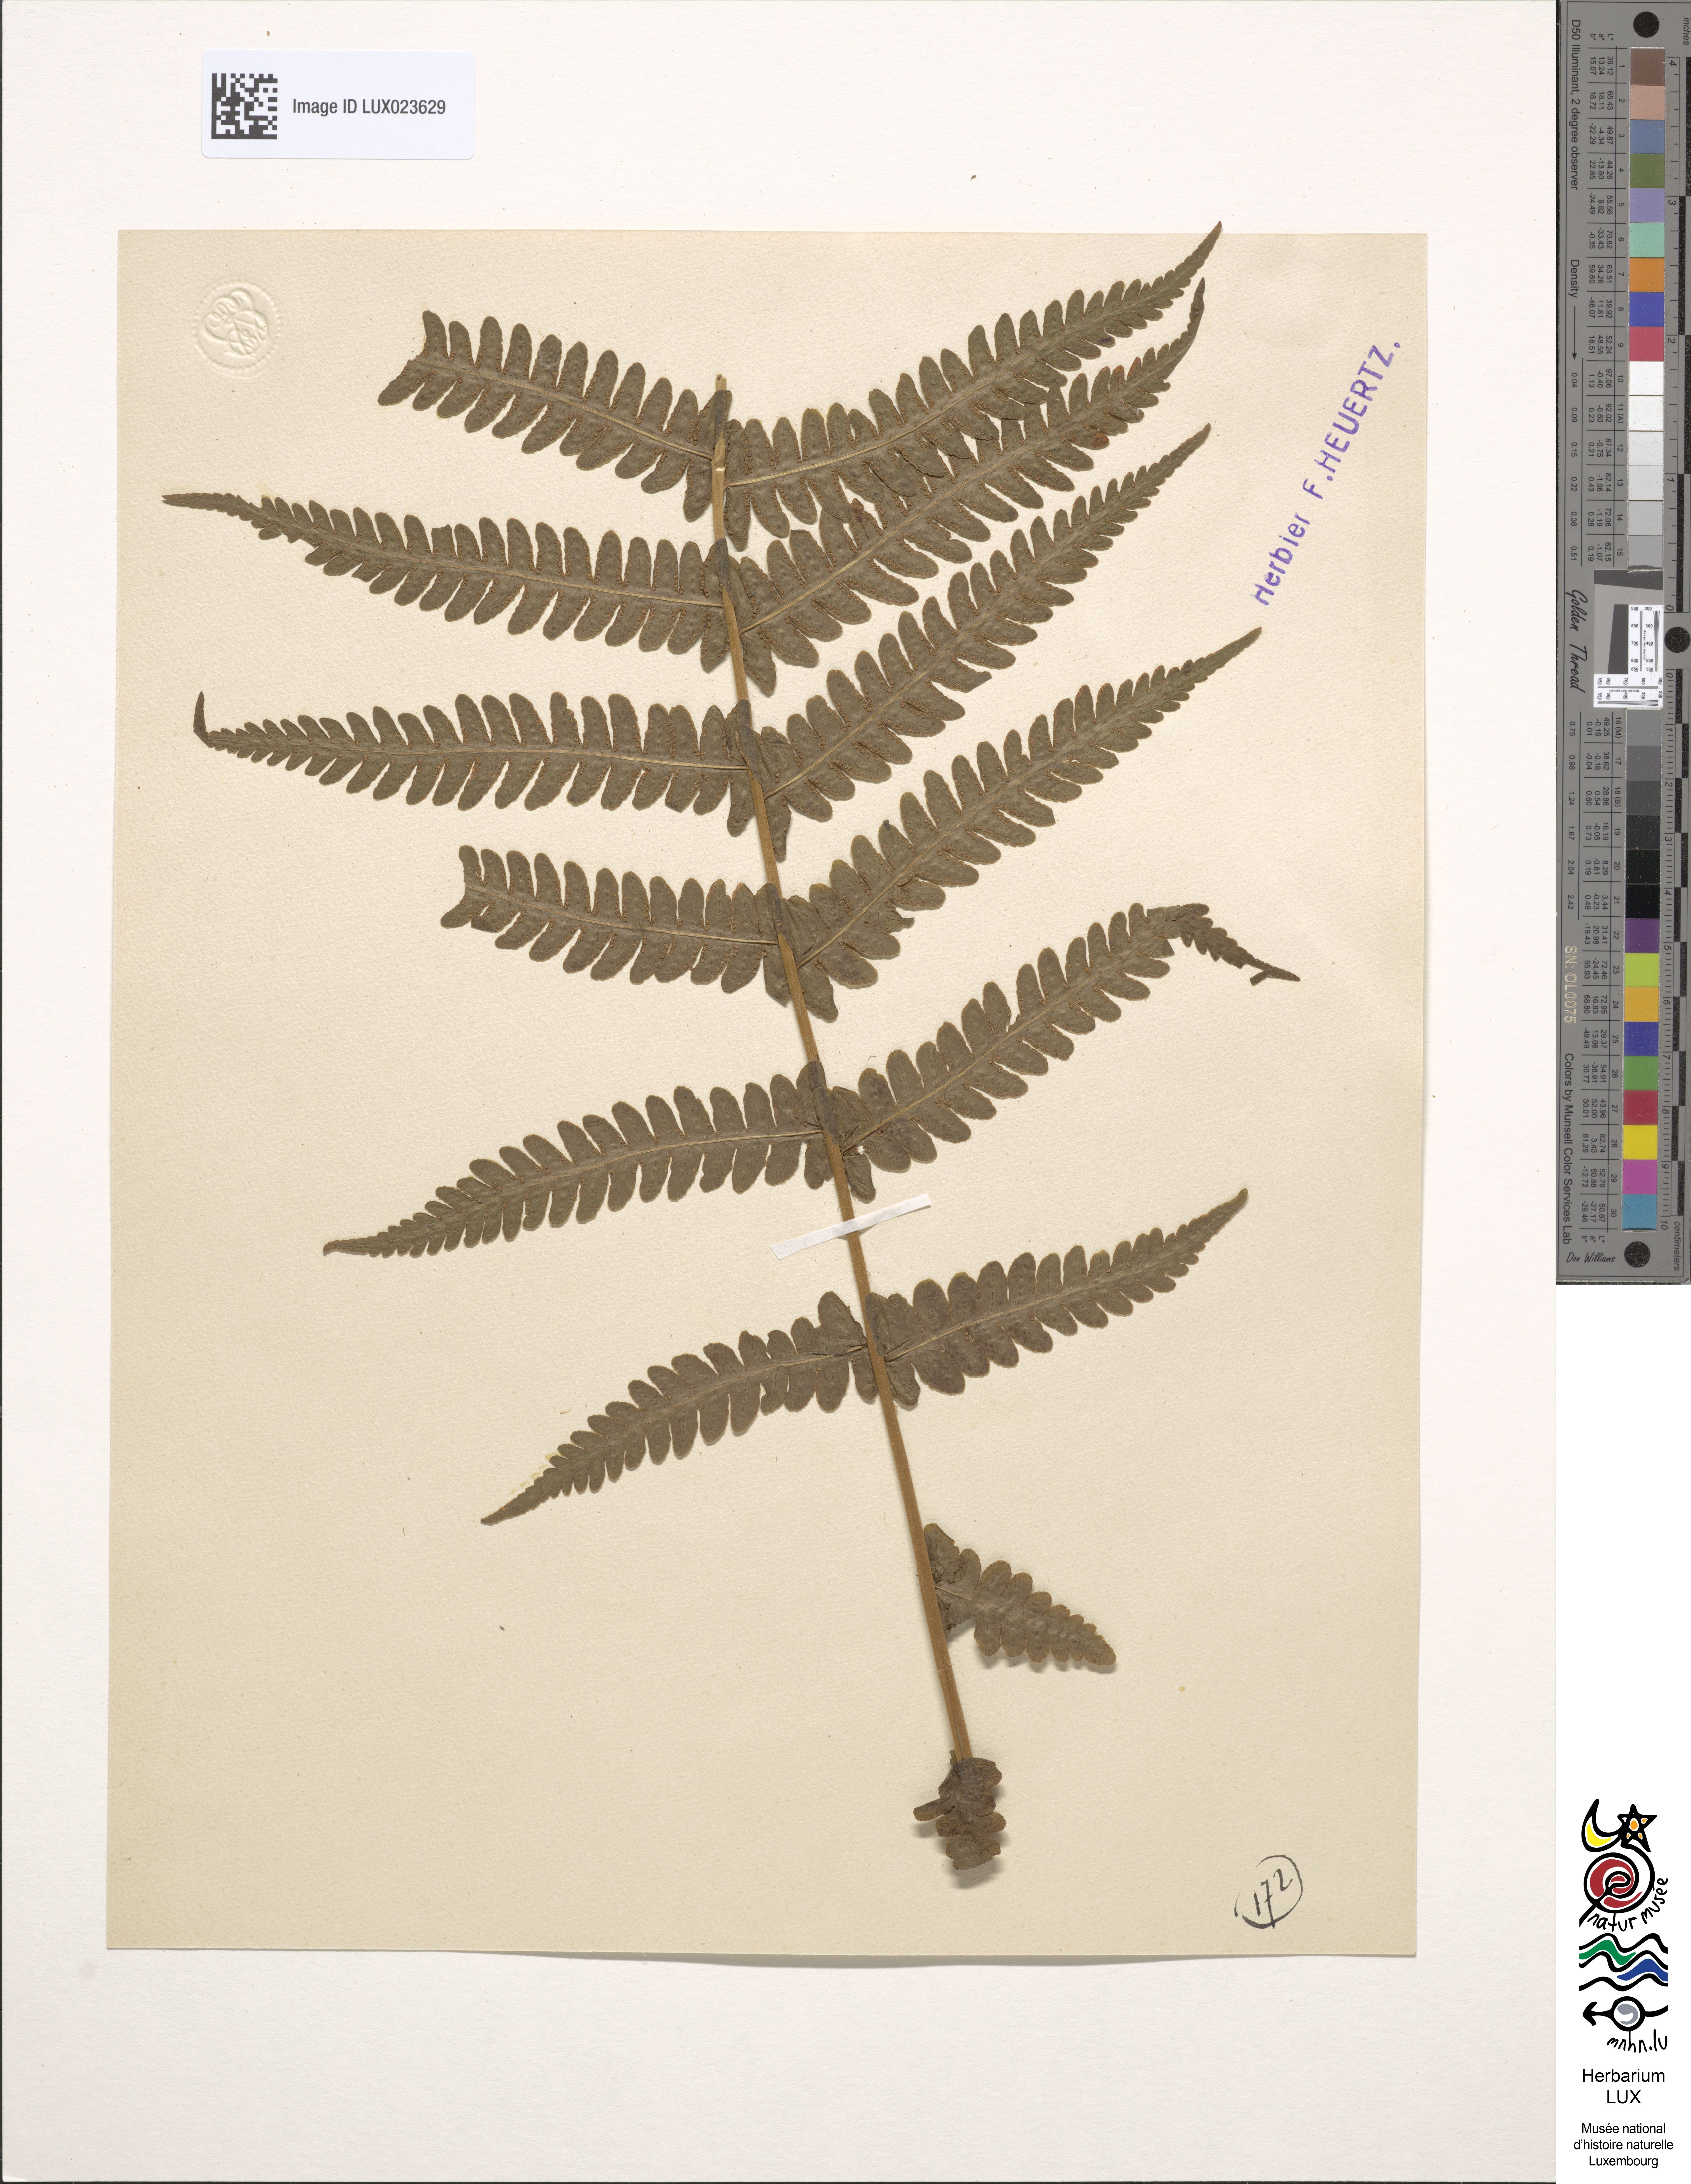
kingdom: Plantae
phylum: Tracheophyta
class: Polypodiopsida
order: Polypodiales
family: Thelypteridaceae
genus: Oreopteris
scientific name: Oreopteris limbosperma
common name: Lemon-scented fern
